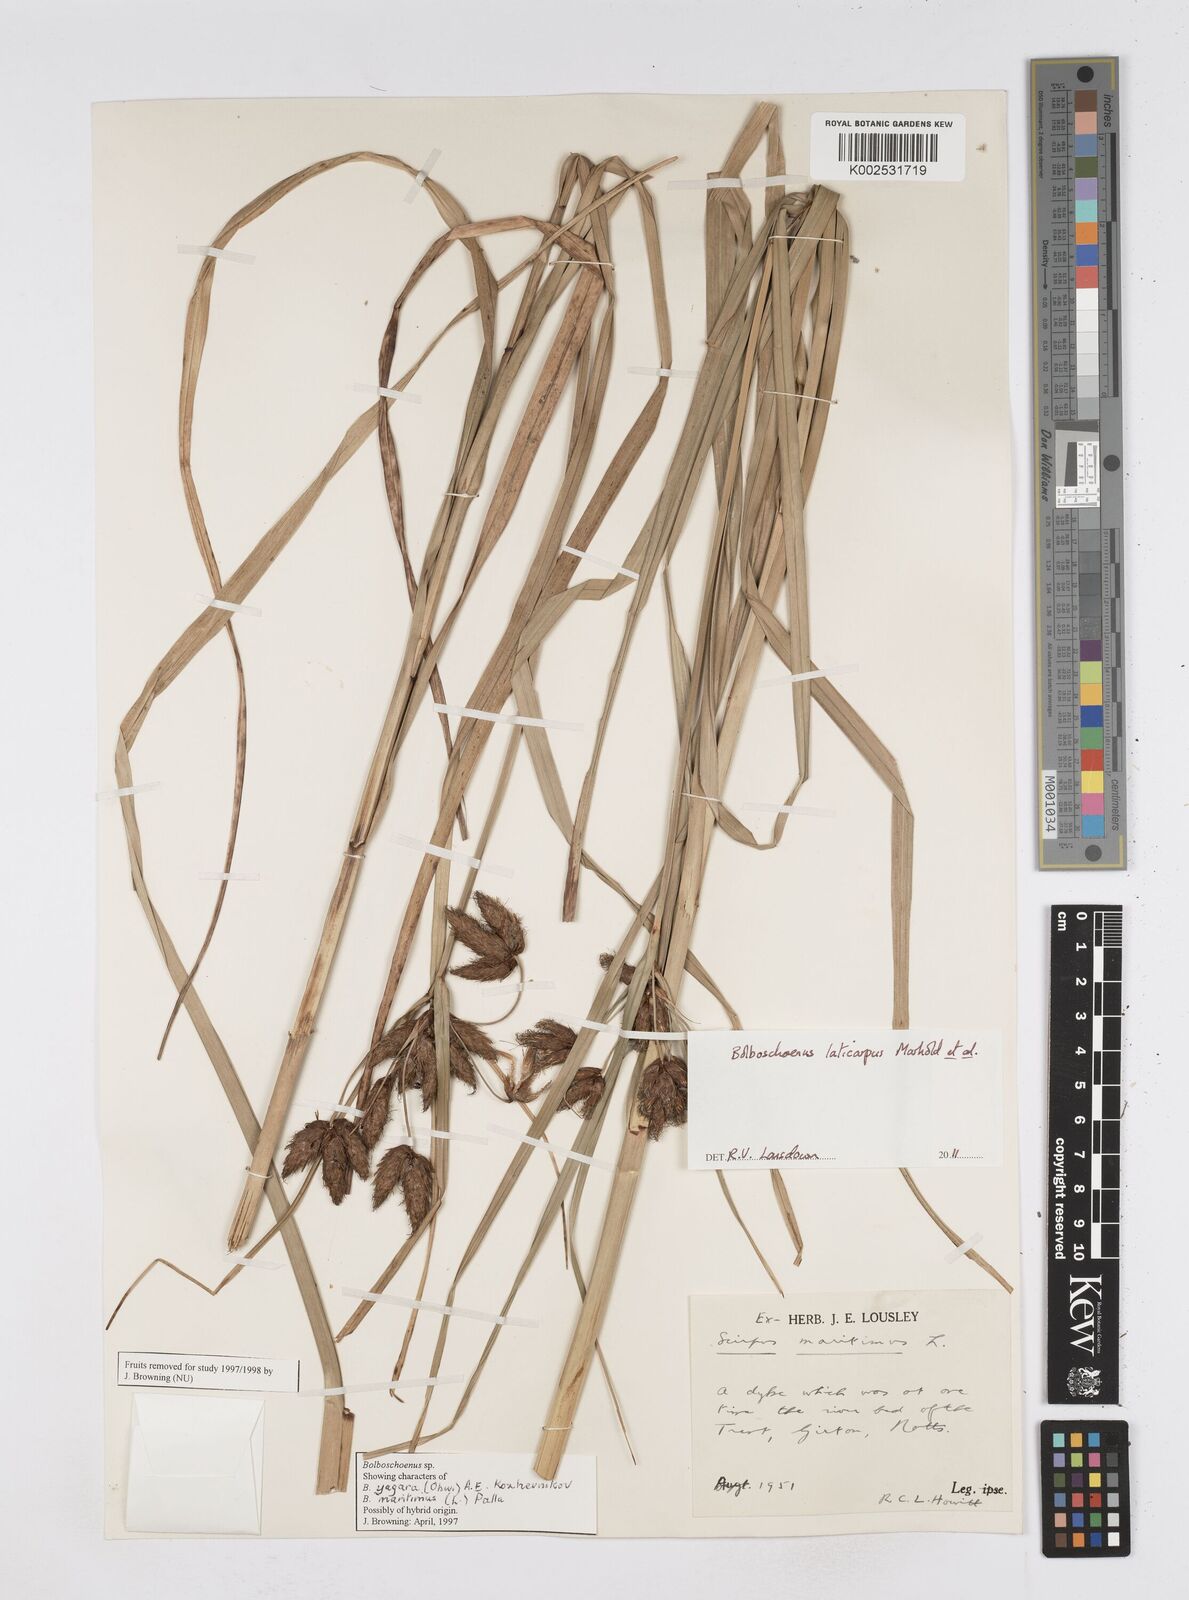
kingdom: Plantae
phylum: Tracheophyta
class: Liliopsida
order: Poales
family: Cyperaceae
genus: Bolboschoenus
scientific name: Bolboschoenus laticarpus
